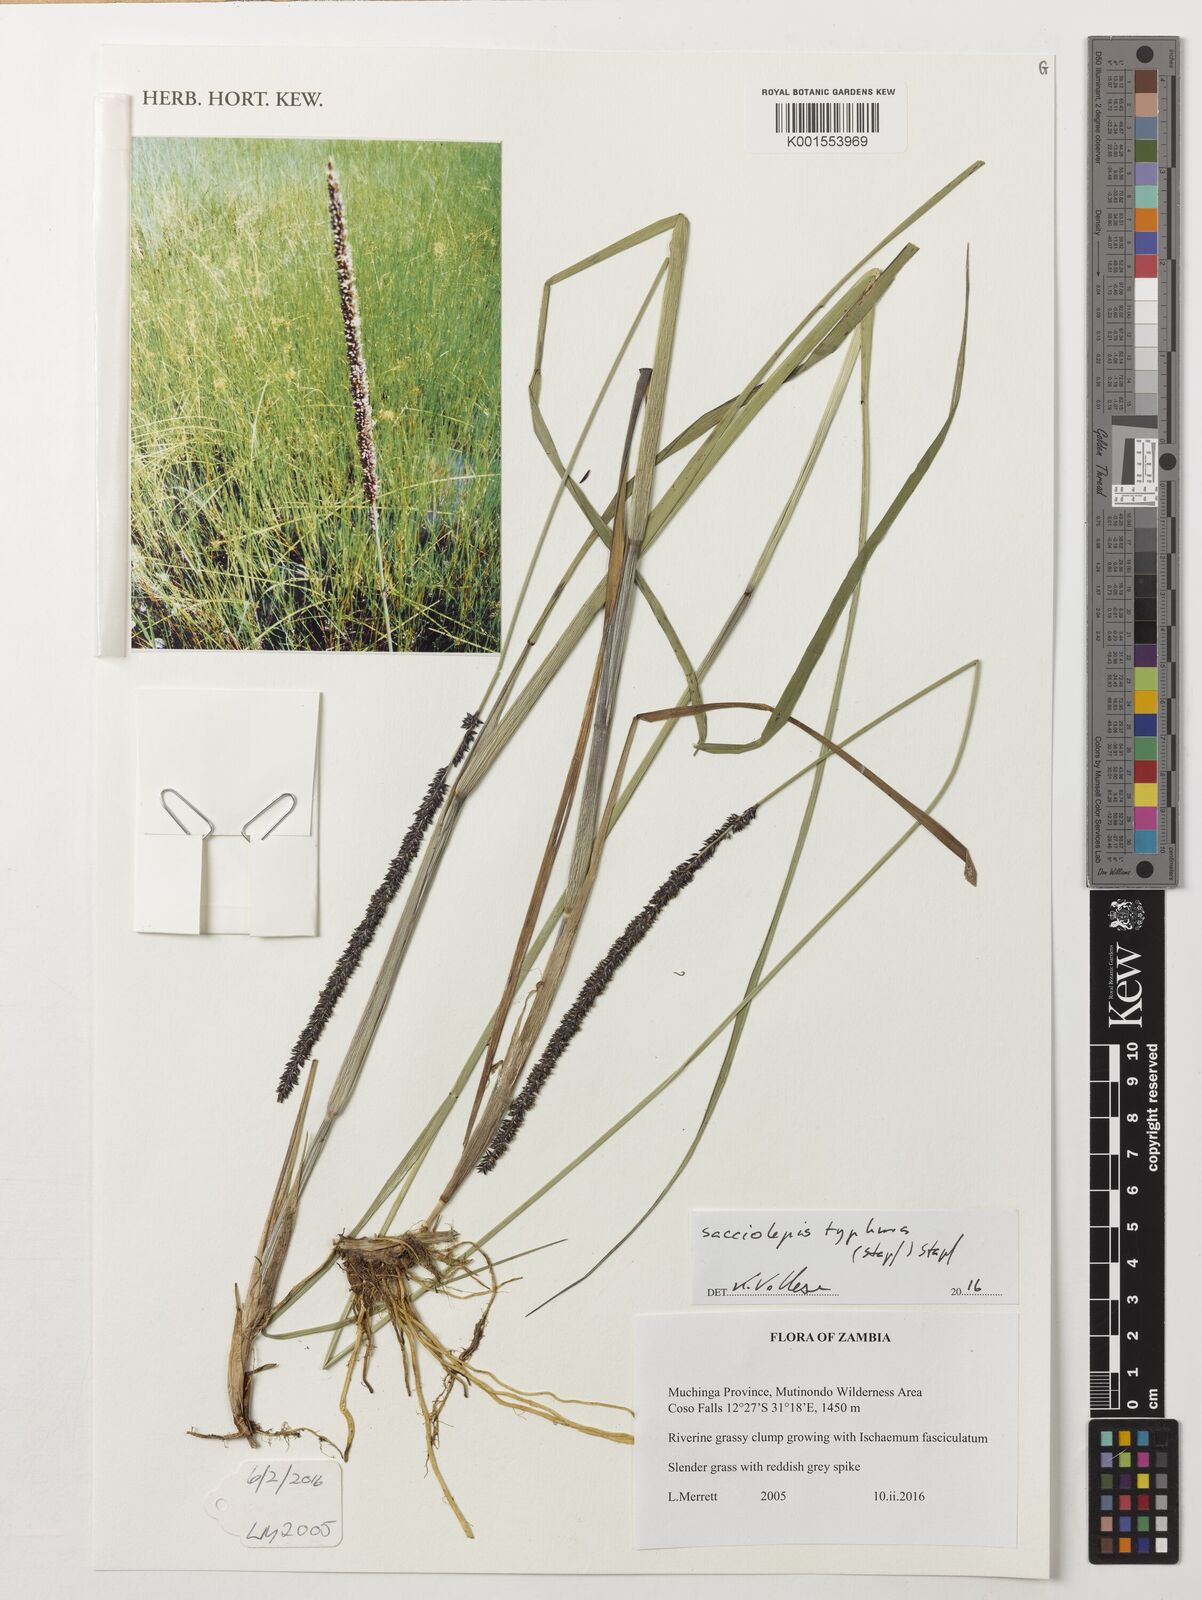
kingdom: Plantae
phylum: Tracheophyta
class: Liliopsida
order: Poales
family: Poaceae
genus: Sacciolepis
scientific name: Sacciolepis typhura
